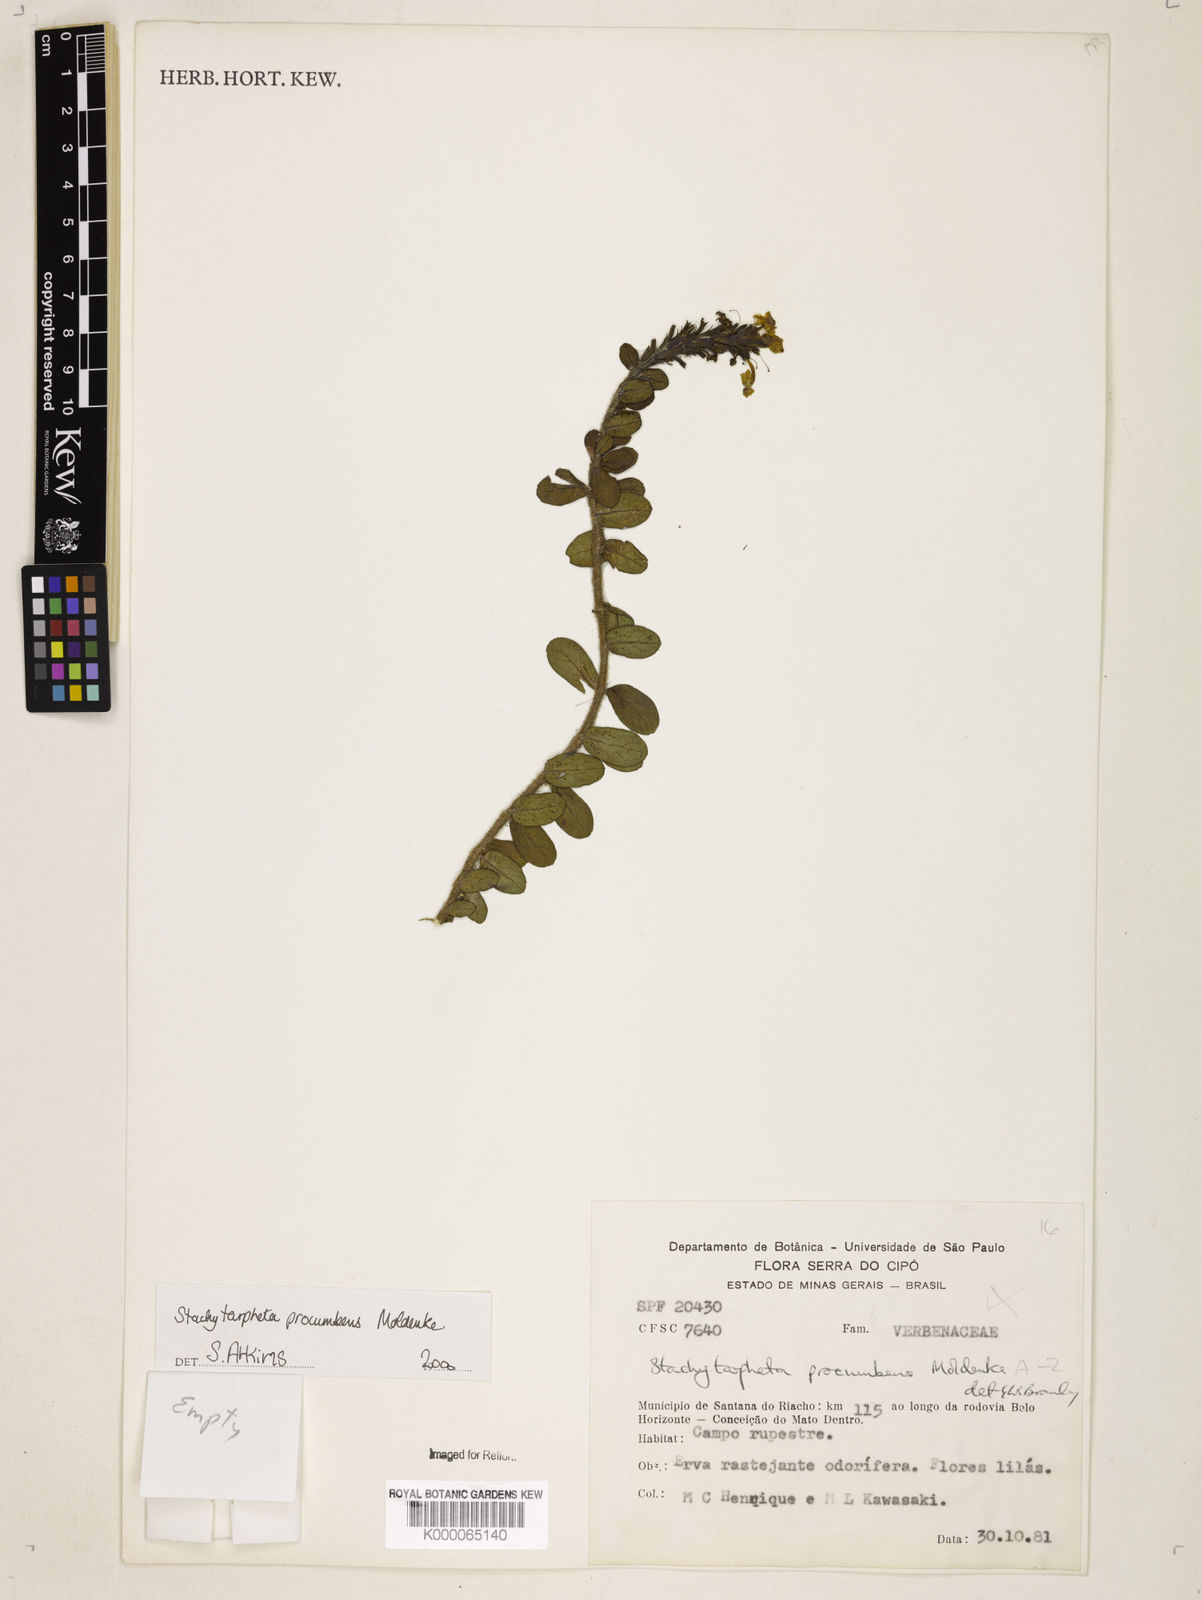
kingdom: Plantae
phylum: Tracheophyta
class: Magnoliopsida
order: Lamiales
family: Verbenaceae
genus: Stachytarpheta
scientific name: Stachytarpheta procumbens
